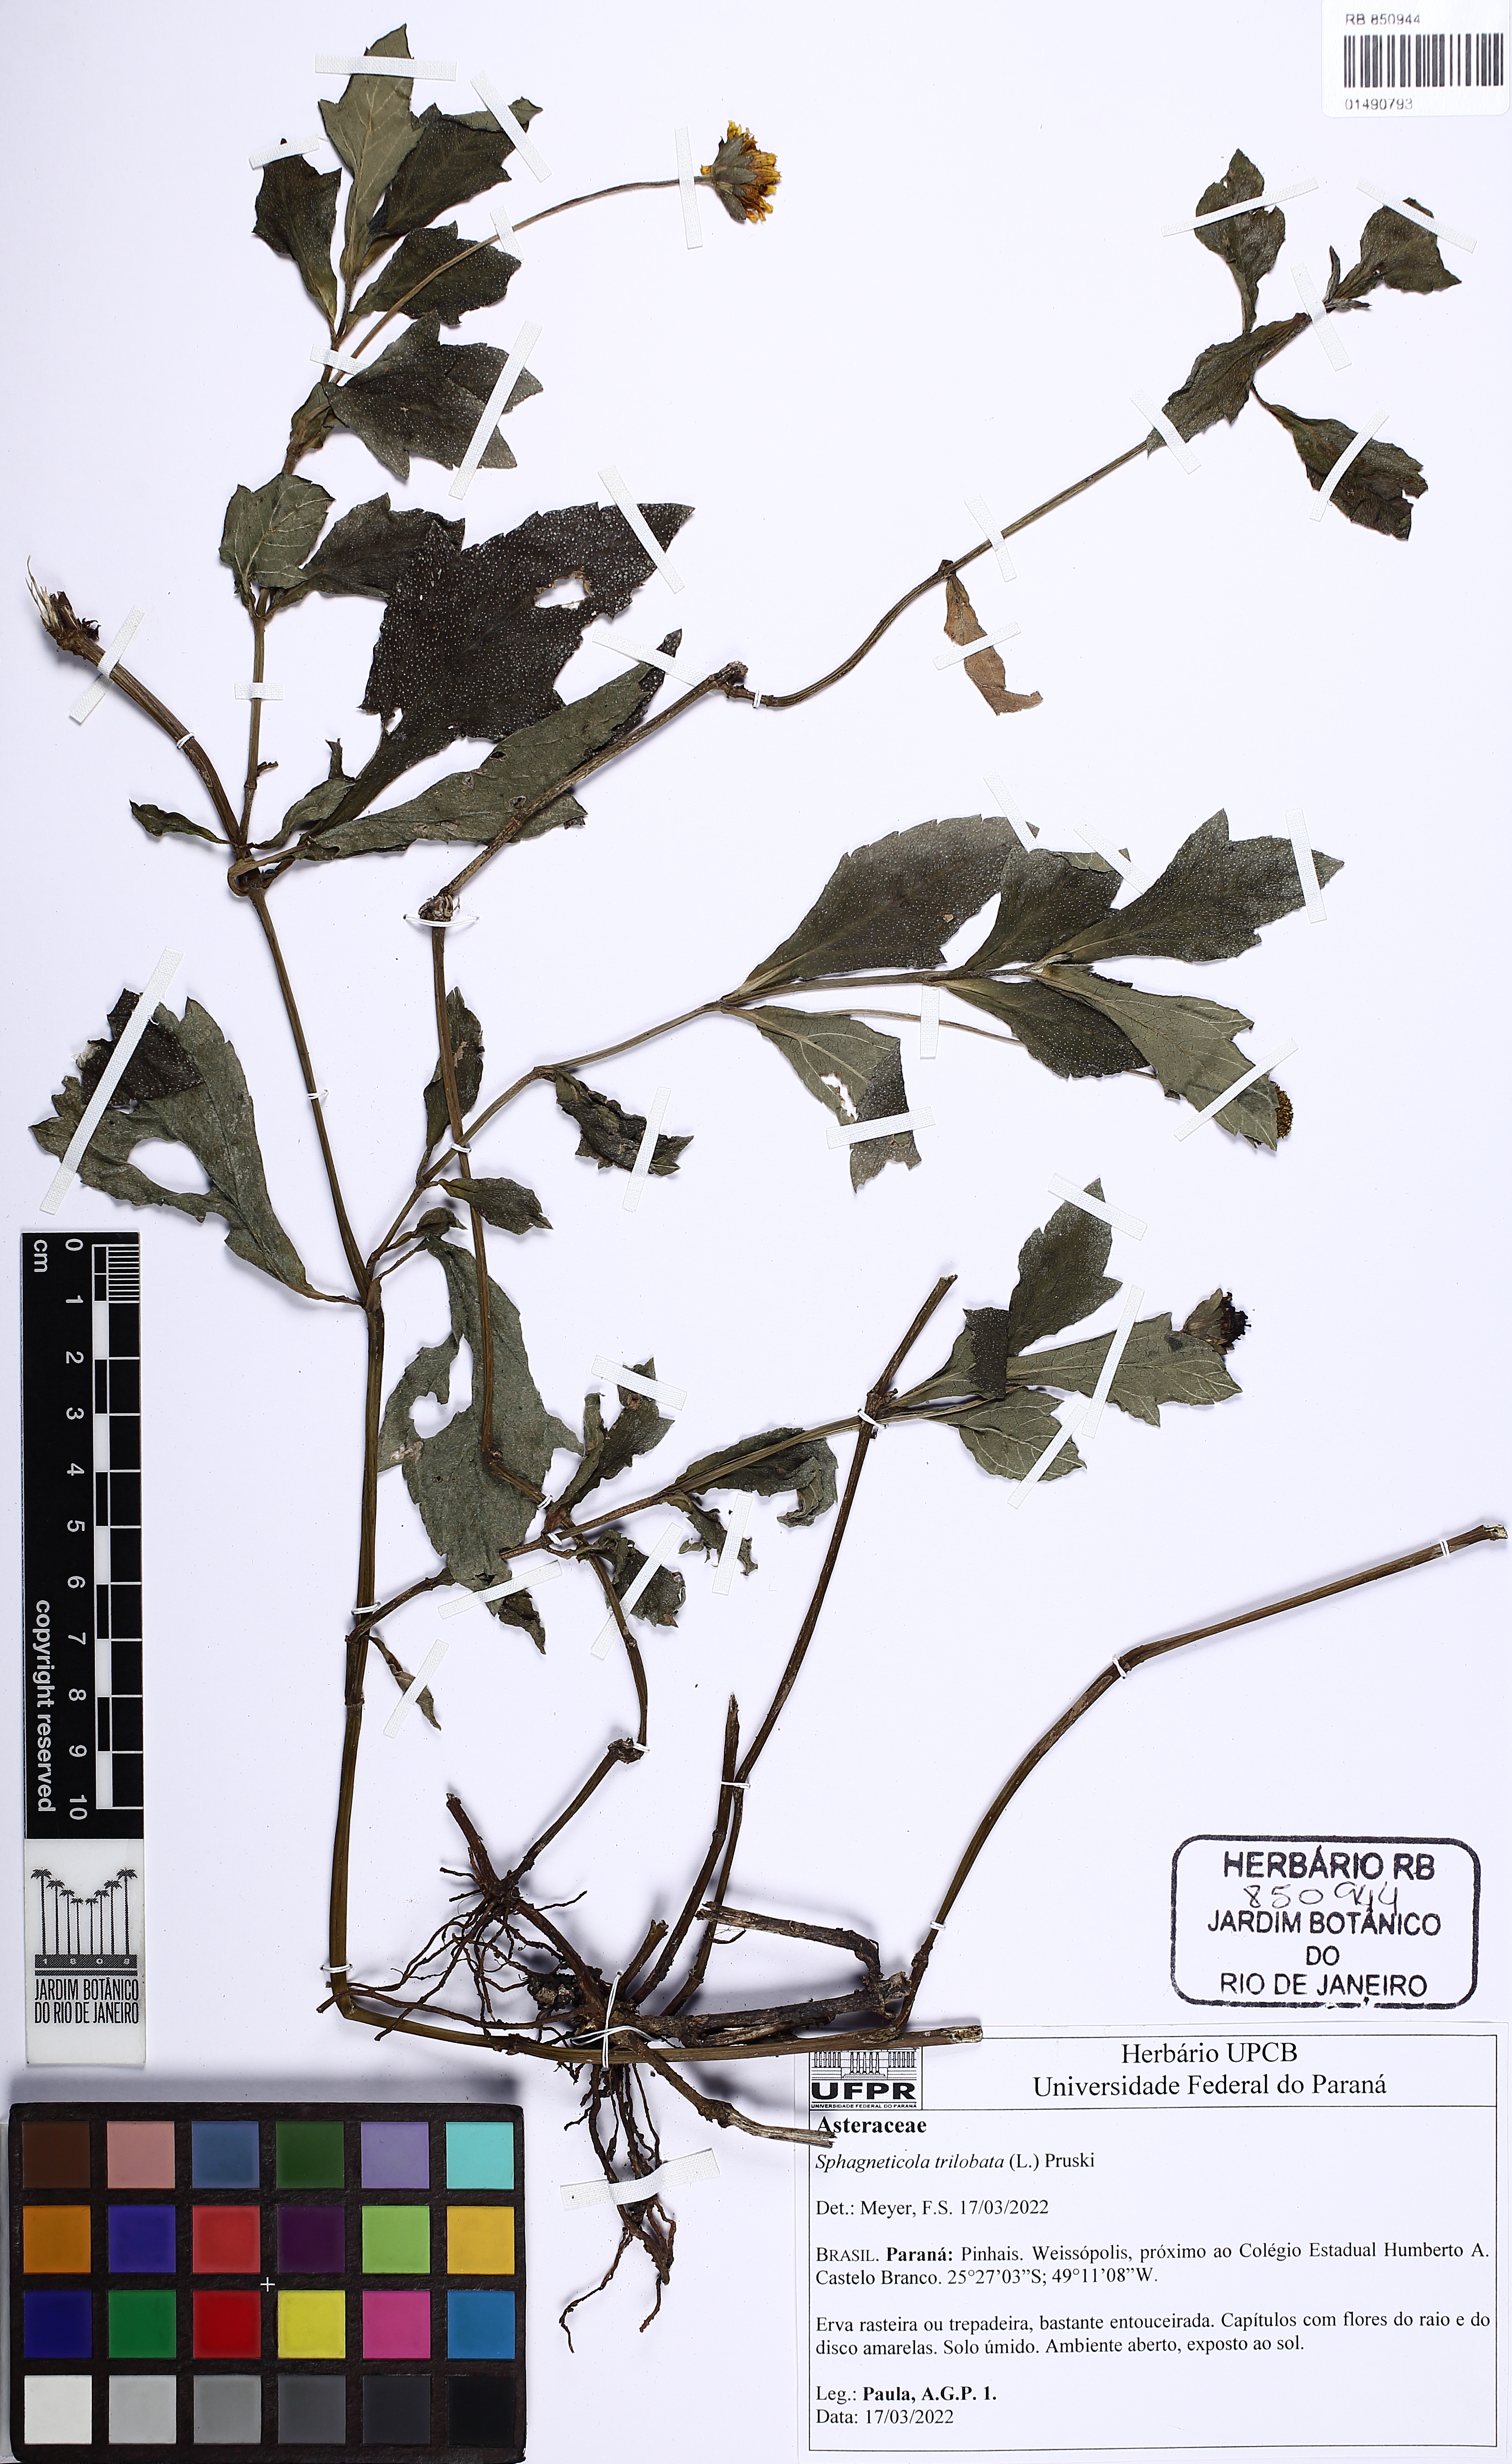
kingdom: Plantae
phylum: Tracheophyta
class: Magnoliopsida
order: Asterales
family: Asteraceae
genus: Sphagneticola
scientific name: Sphagneticola trilobata
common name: Bay biscayne creeping-oxeye
